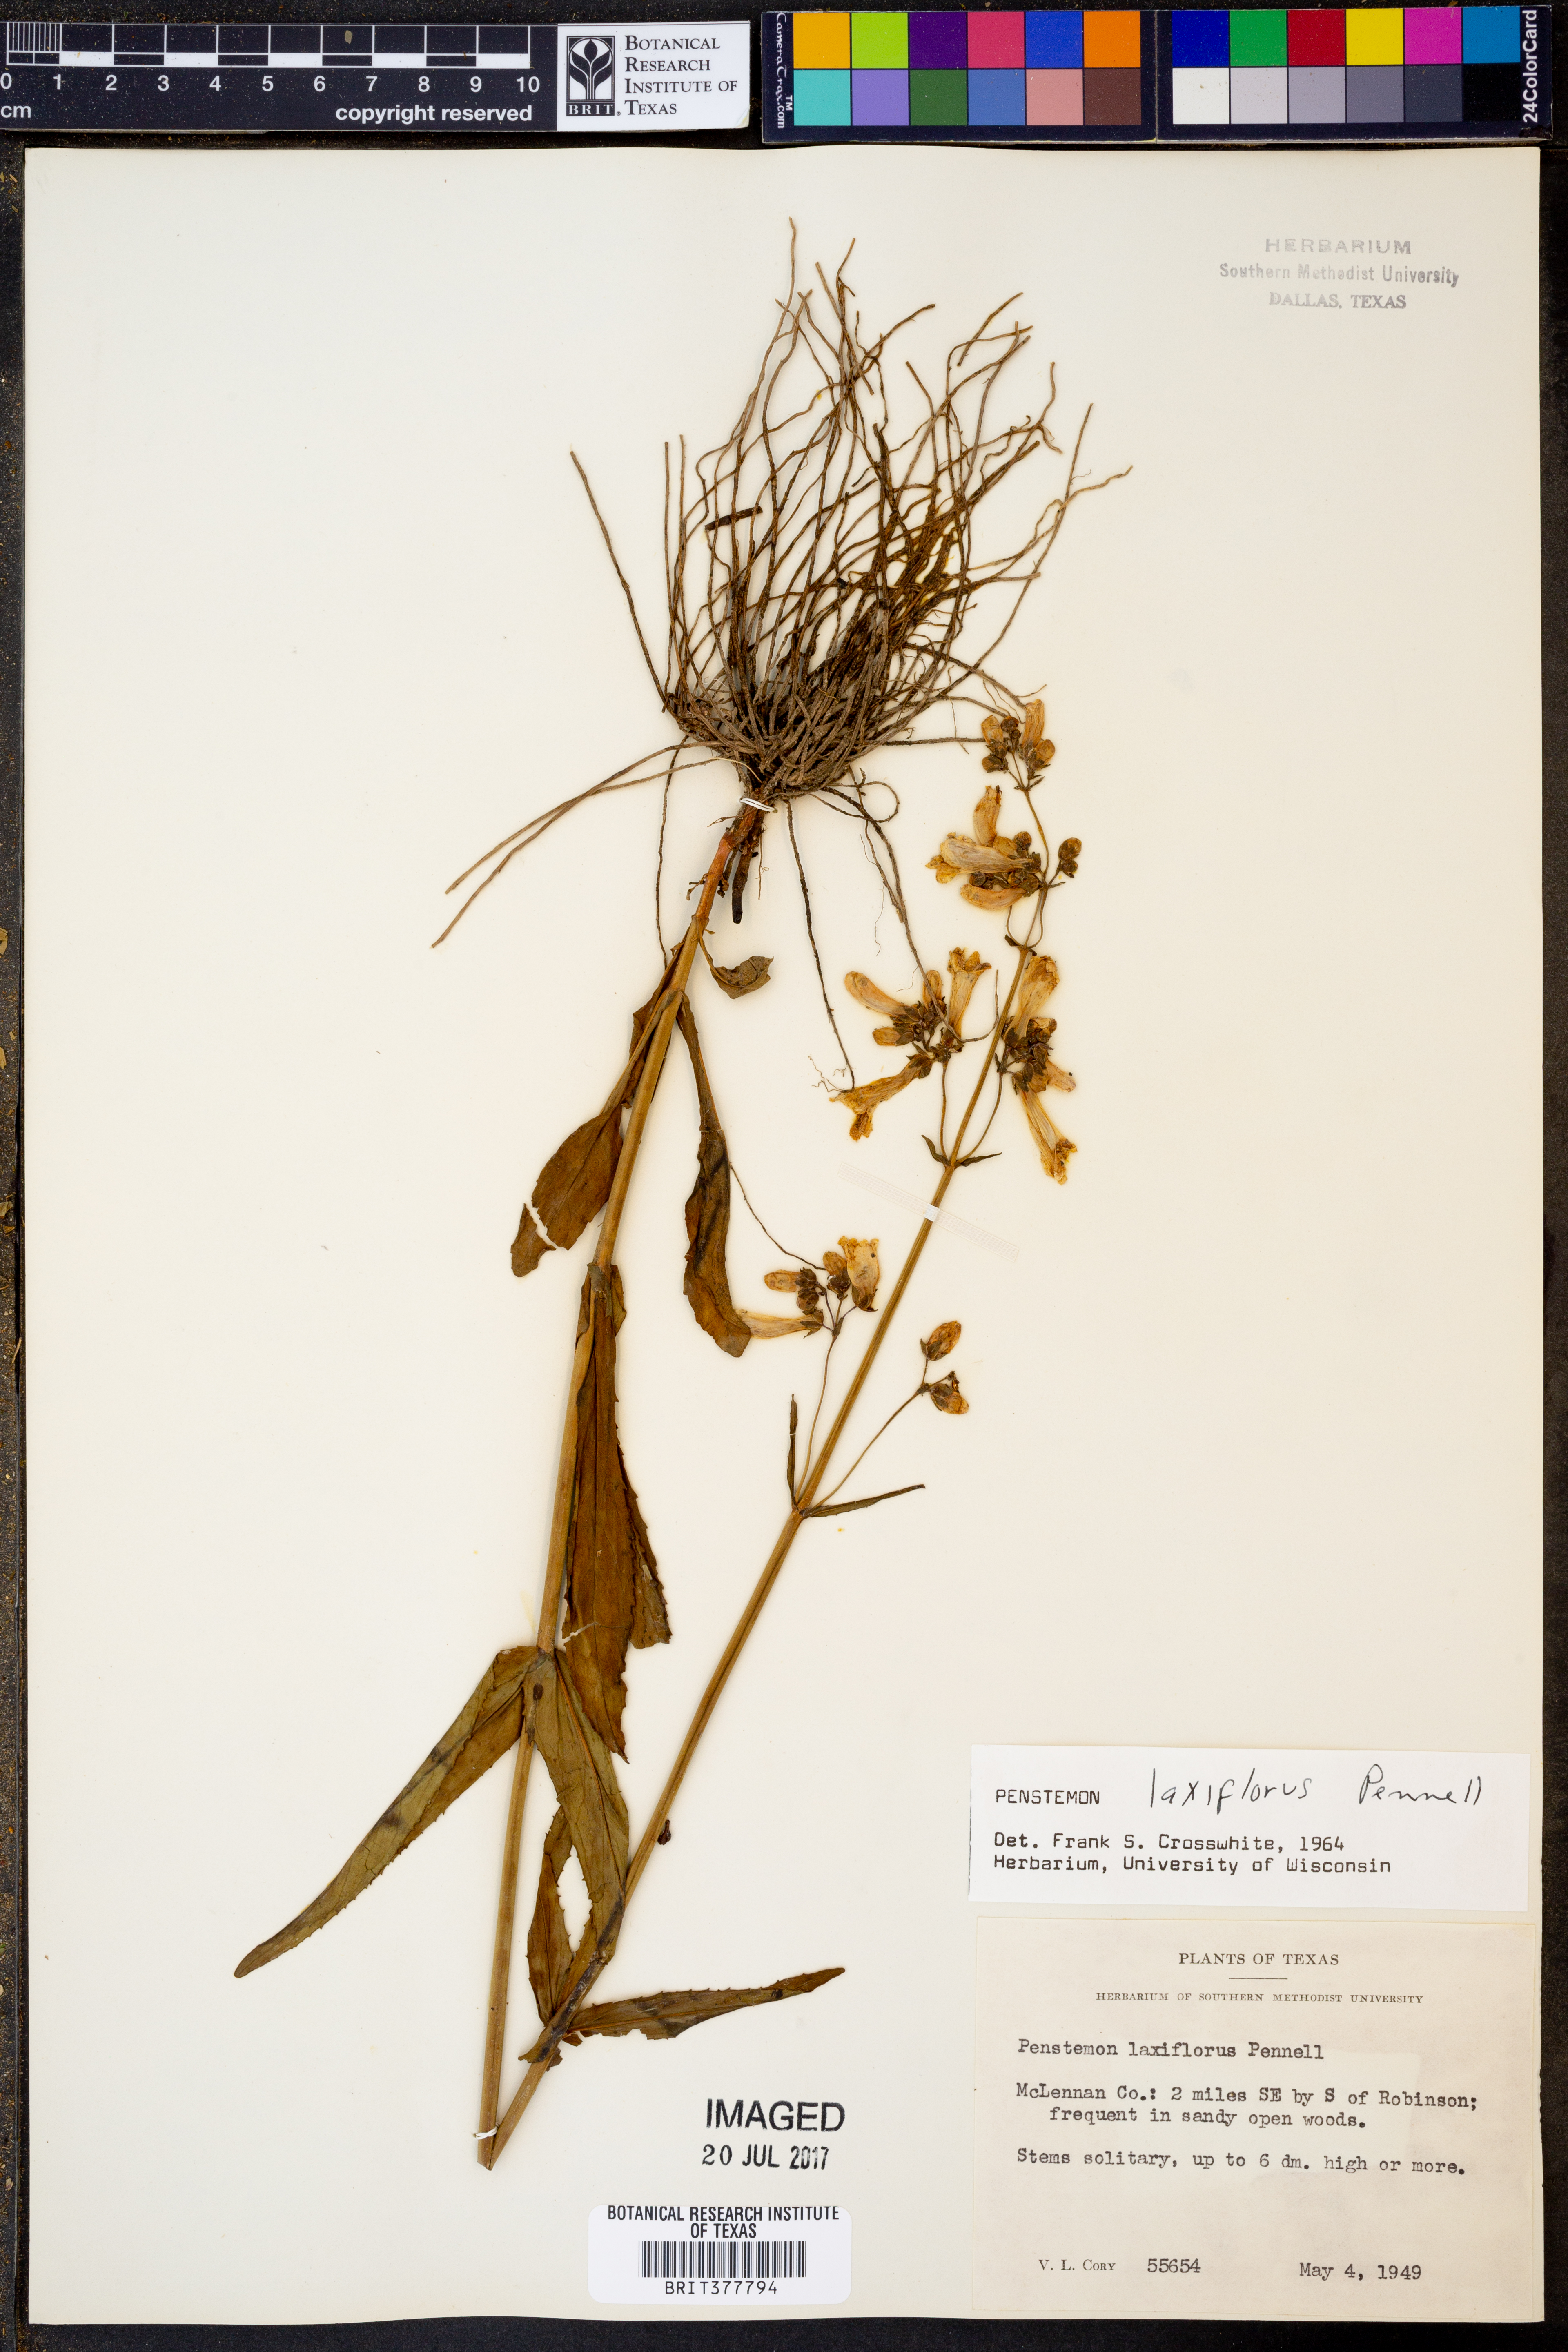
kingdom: Plantae
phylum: Tracheophyta
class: Magnoliopsida
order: Lamiales
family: Plantaginaceae
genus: Penstemon
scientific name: Penstemon laxiflorus
